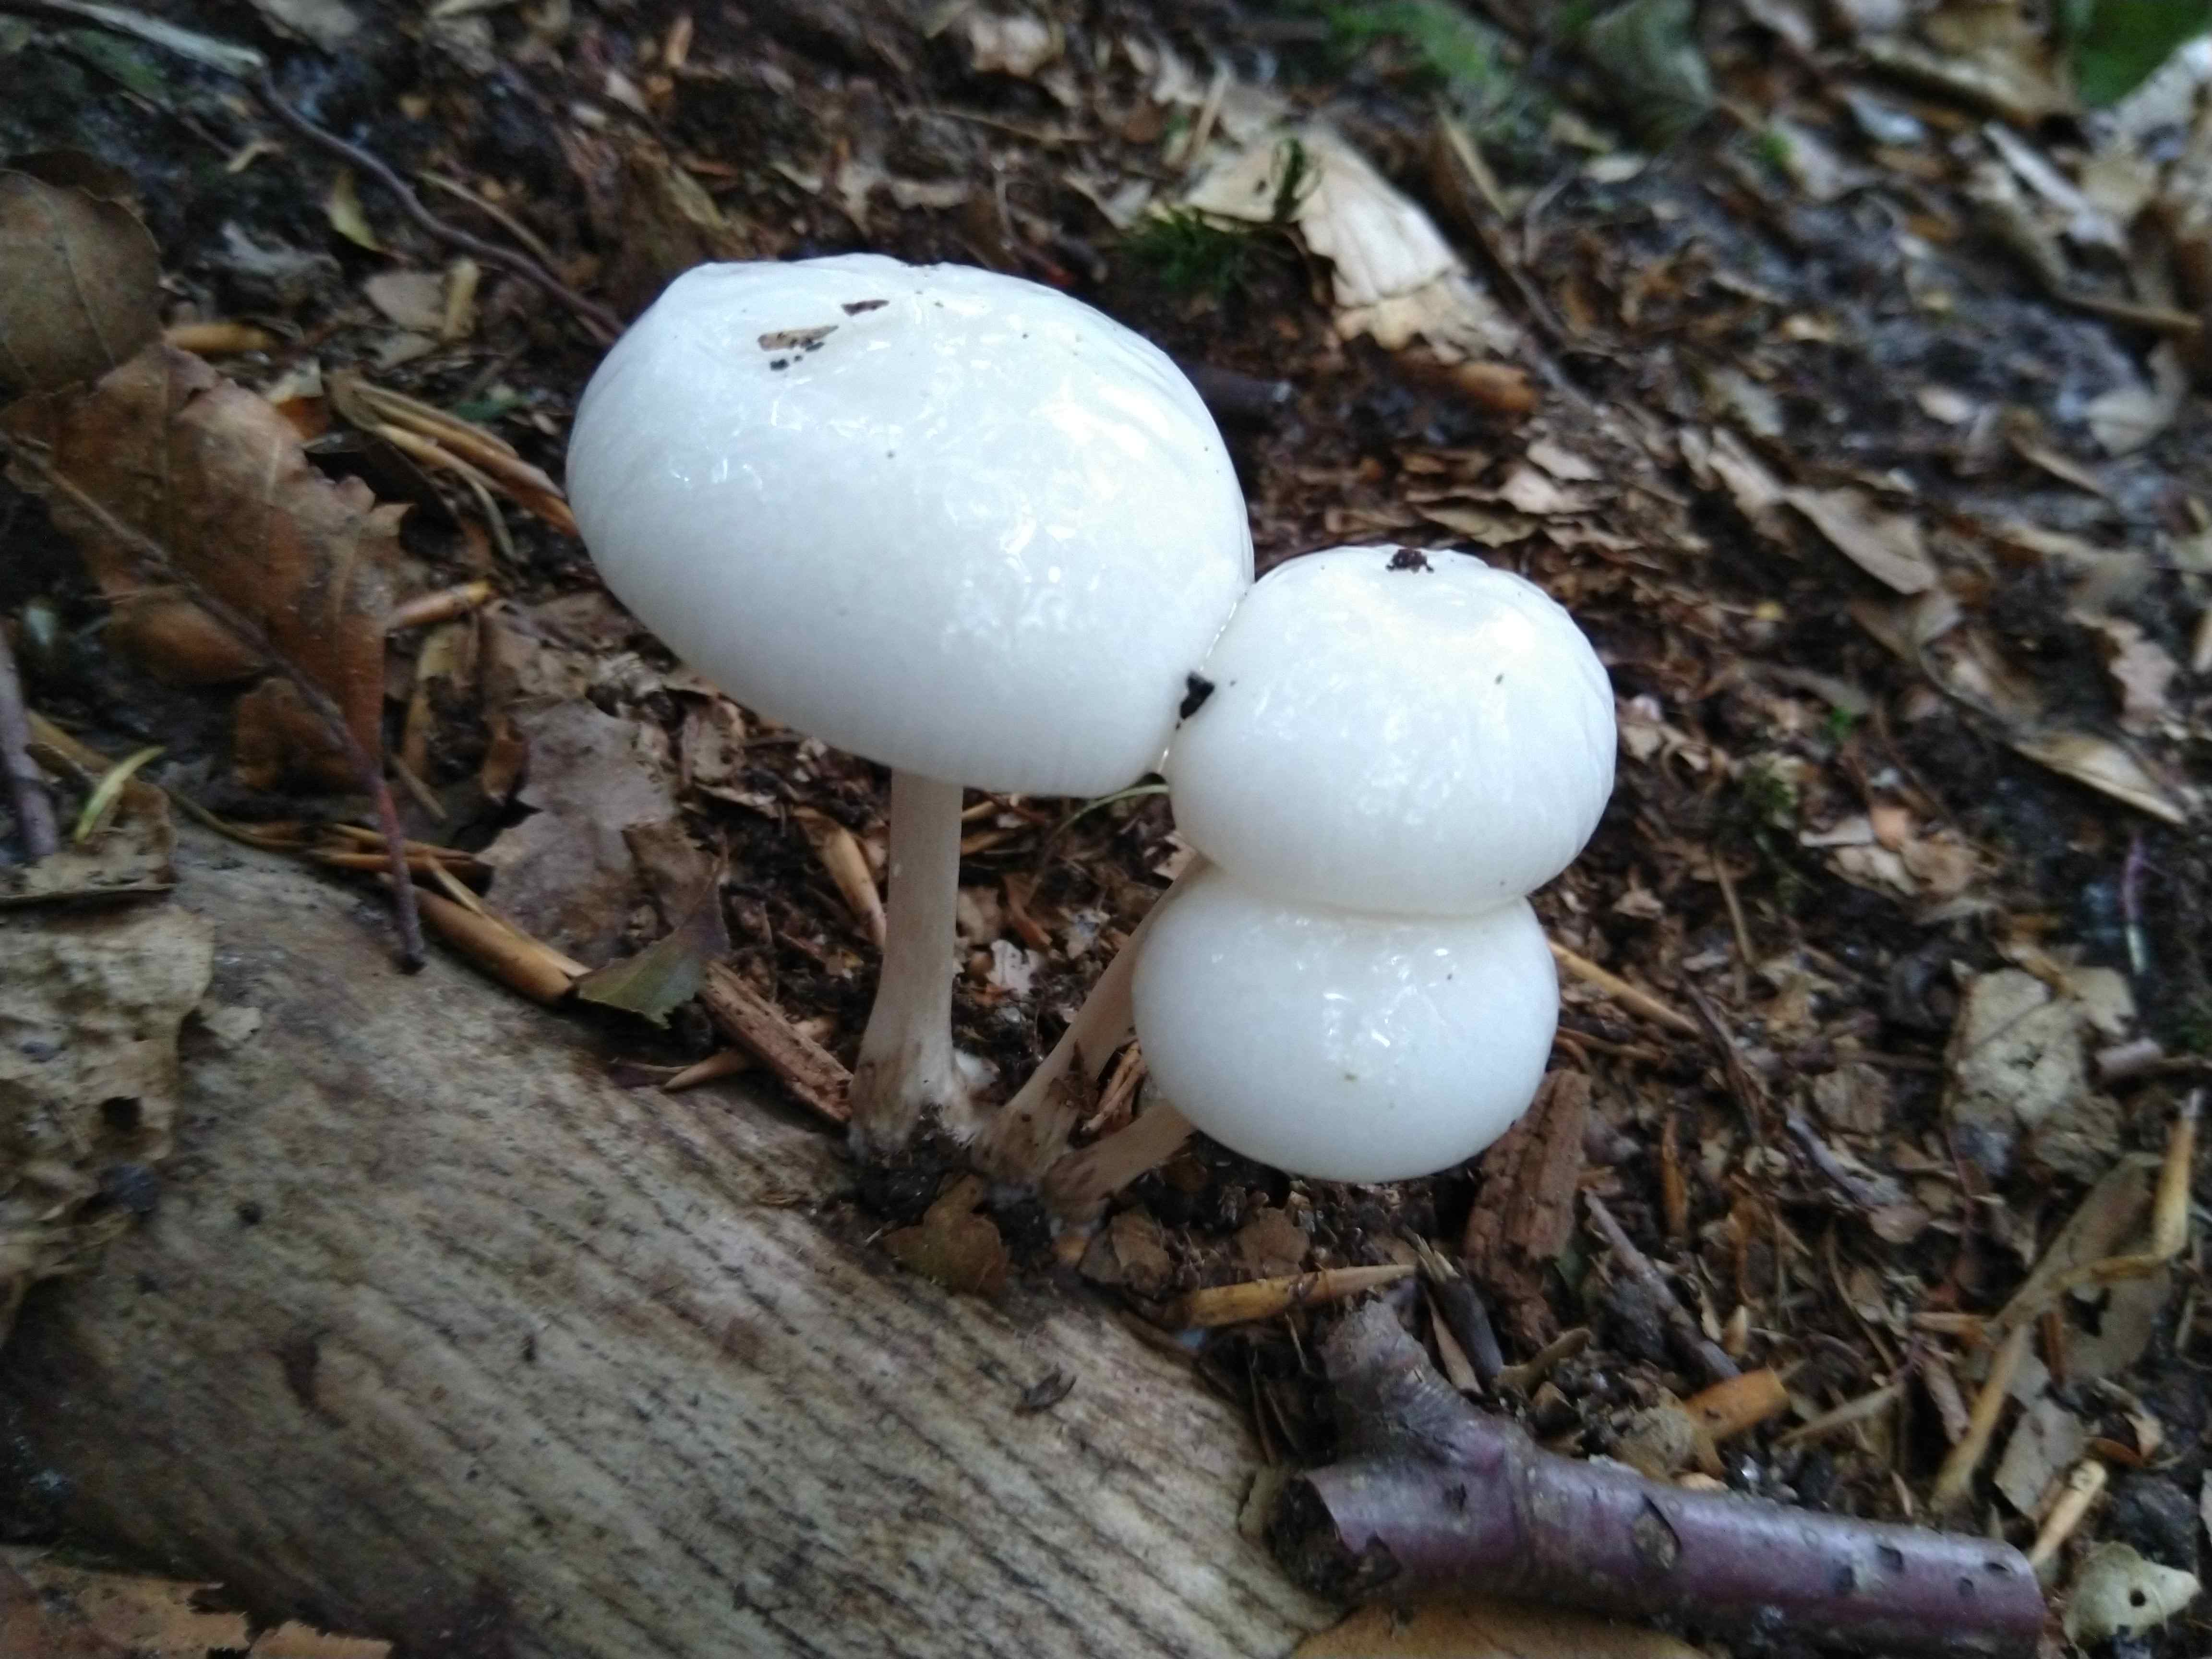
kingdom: Fungi
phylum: Basidiomycota
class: Agaricomycetes
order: Agaricales
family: Physalacriaceae
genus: Mucidula
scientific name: Mucidula mucida
